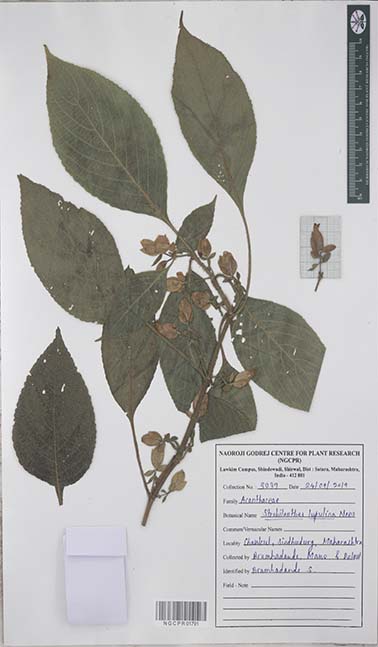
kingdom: Plantae
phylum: Tracheophyta
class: Magnoliopsida
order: Lamiales
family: Acanthaceae
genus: Strobilanthes
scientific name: Strobilanthes lupulina
